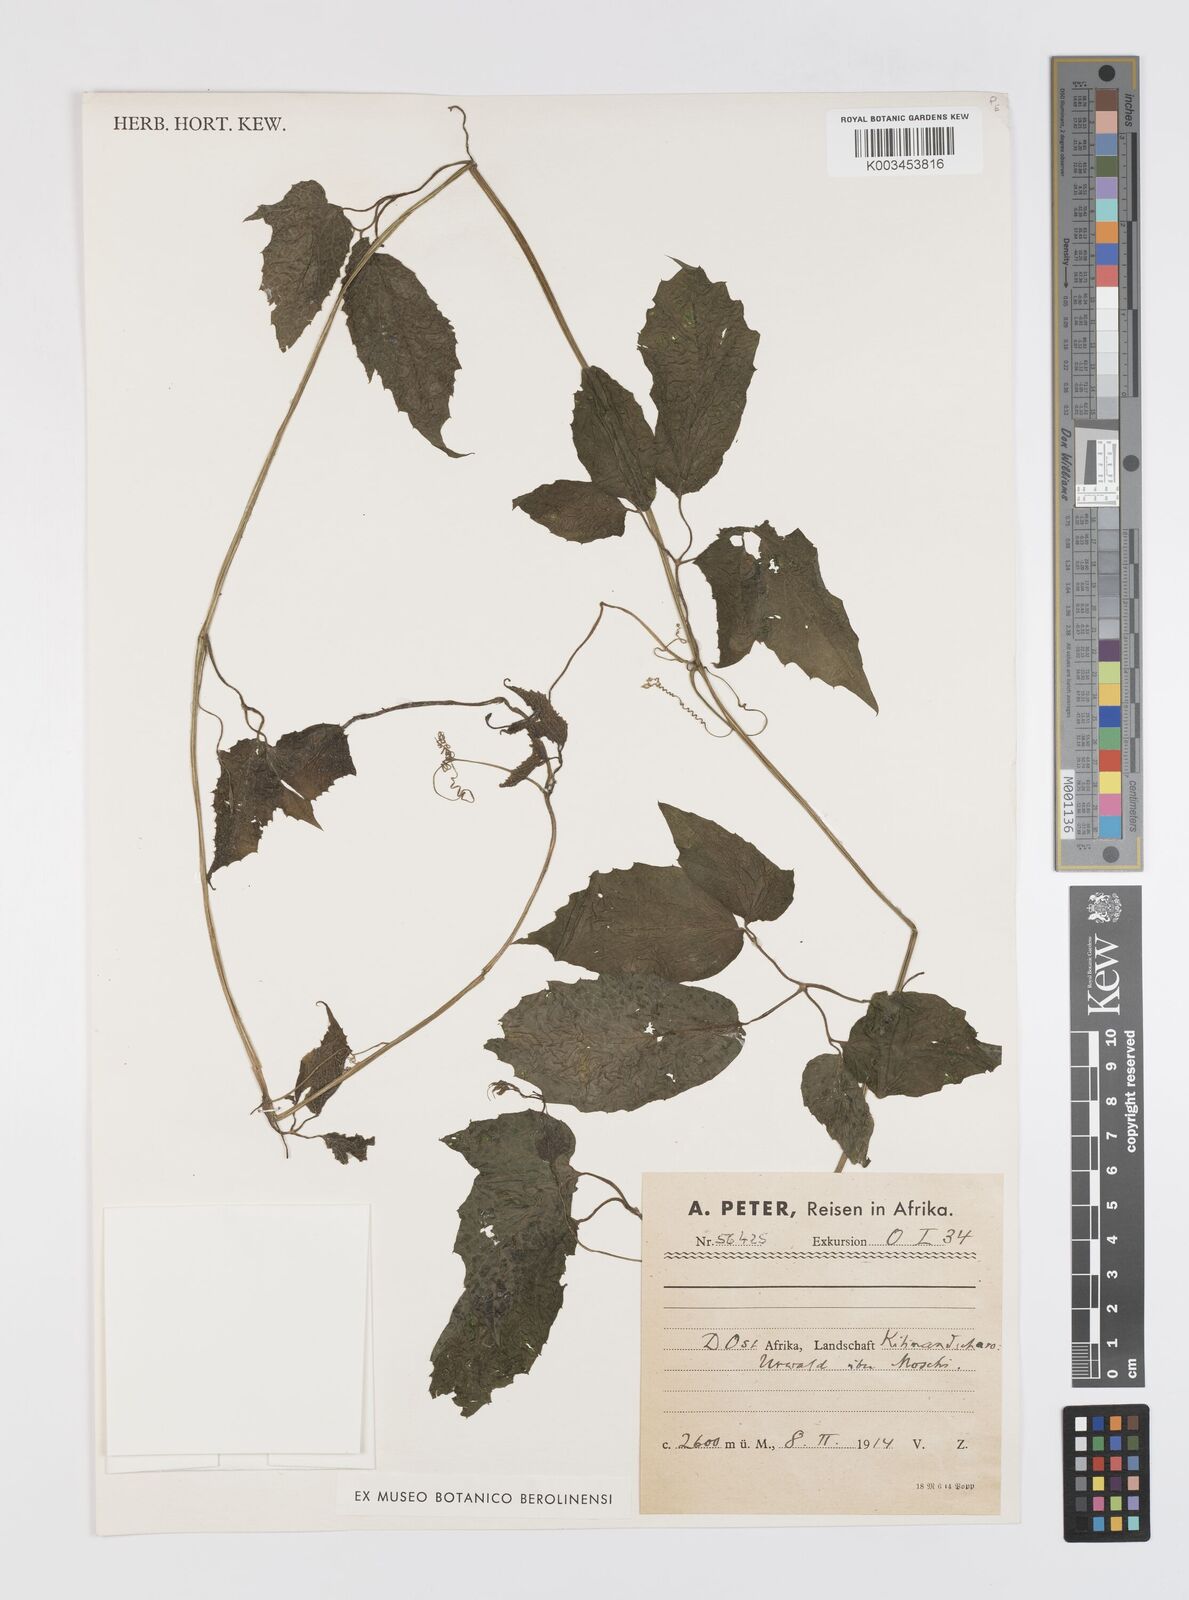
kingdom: Plantae
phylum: Tracheophyta
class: Magnoliopsida
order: Cucurbitales
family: Cucurbitaceae
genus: Momordica
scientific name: Momordica friesiorum
